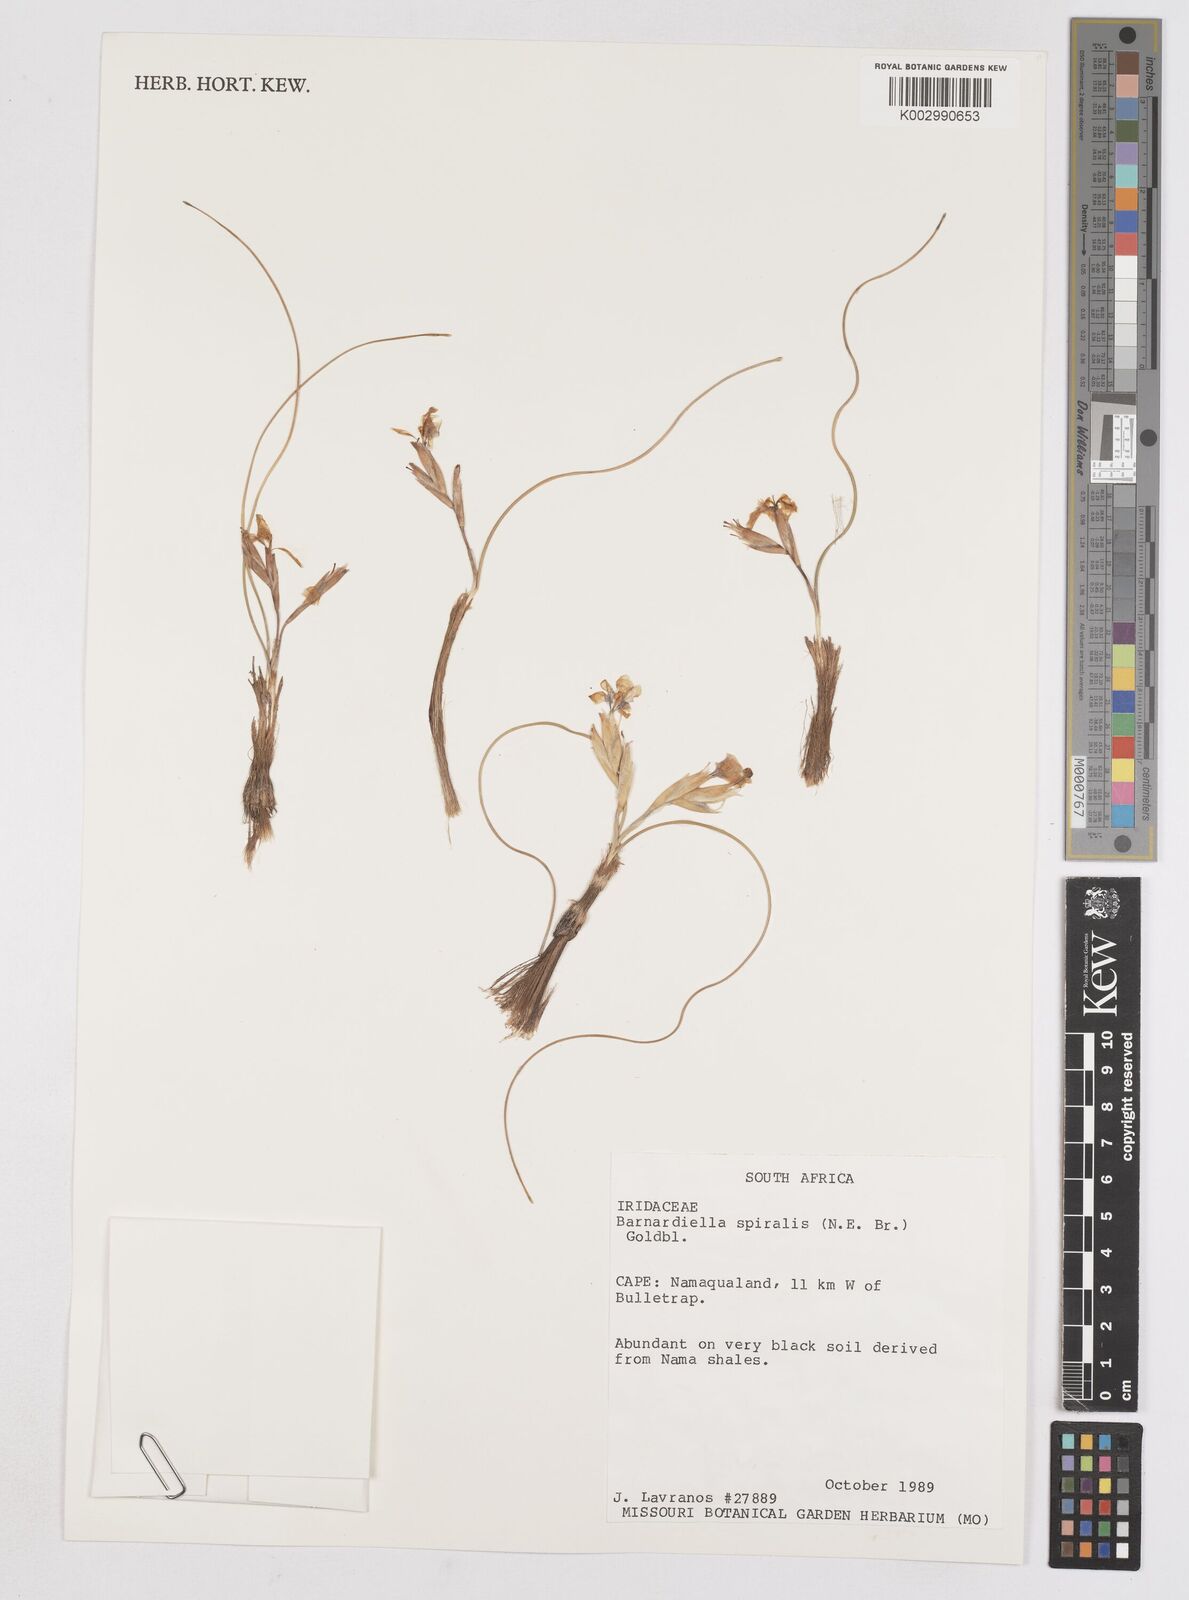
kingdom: Plantae
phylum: Tracheophyta
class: Liliopsida
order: Asparagales
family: Iridaceae
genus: Moraea
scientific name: Moraea
